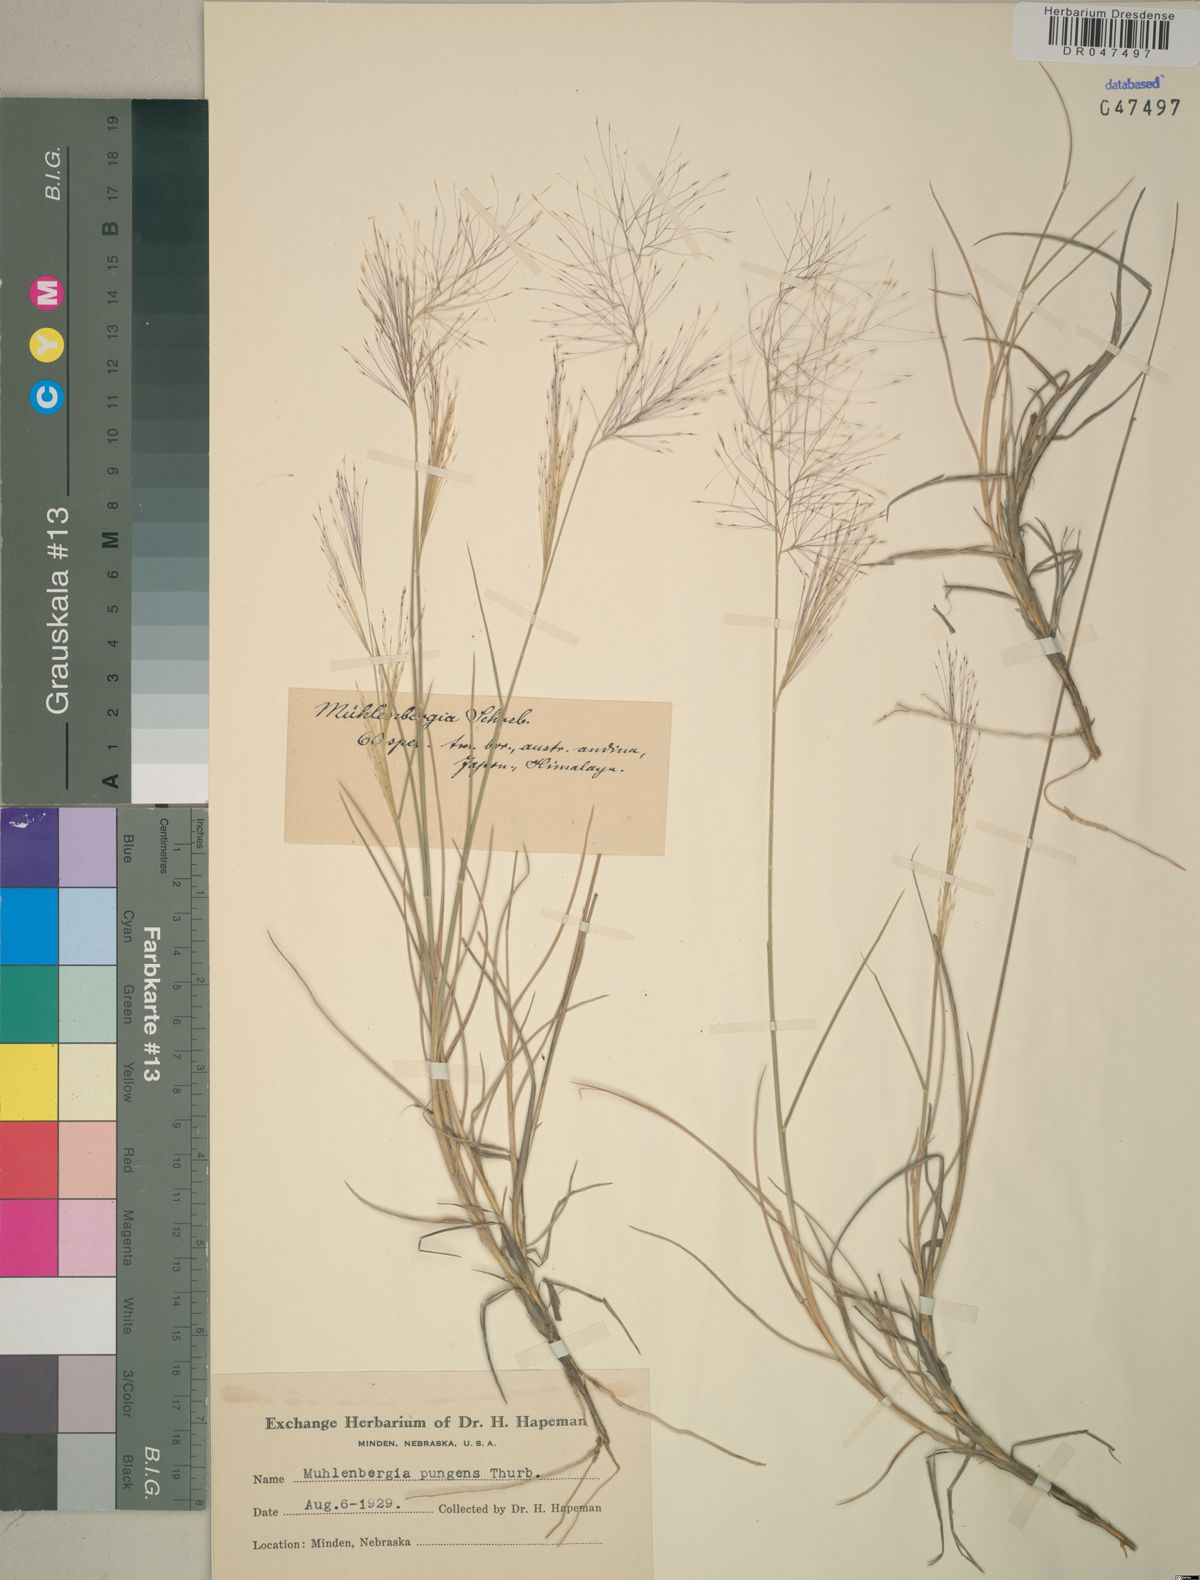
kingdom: Plantae
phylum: Tracheophyta
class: Liliopsida
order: Poales
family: Poaceae
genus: Muhlenbergia
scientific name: Muhlenbergia pungens
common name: Sandhill muhly
